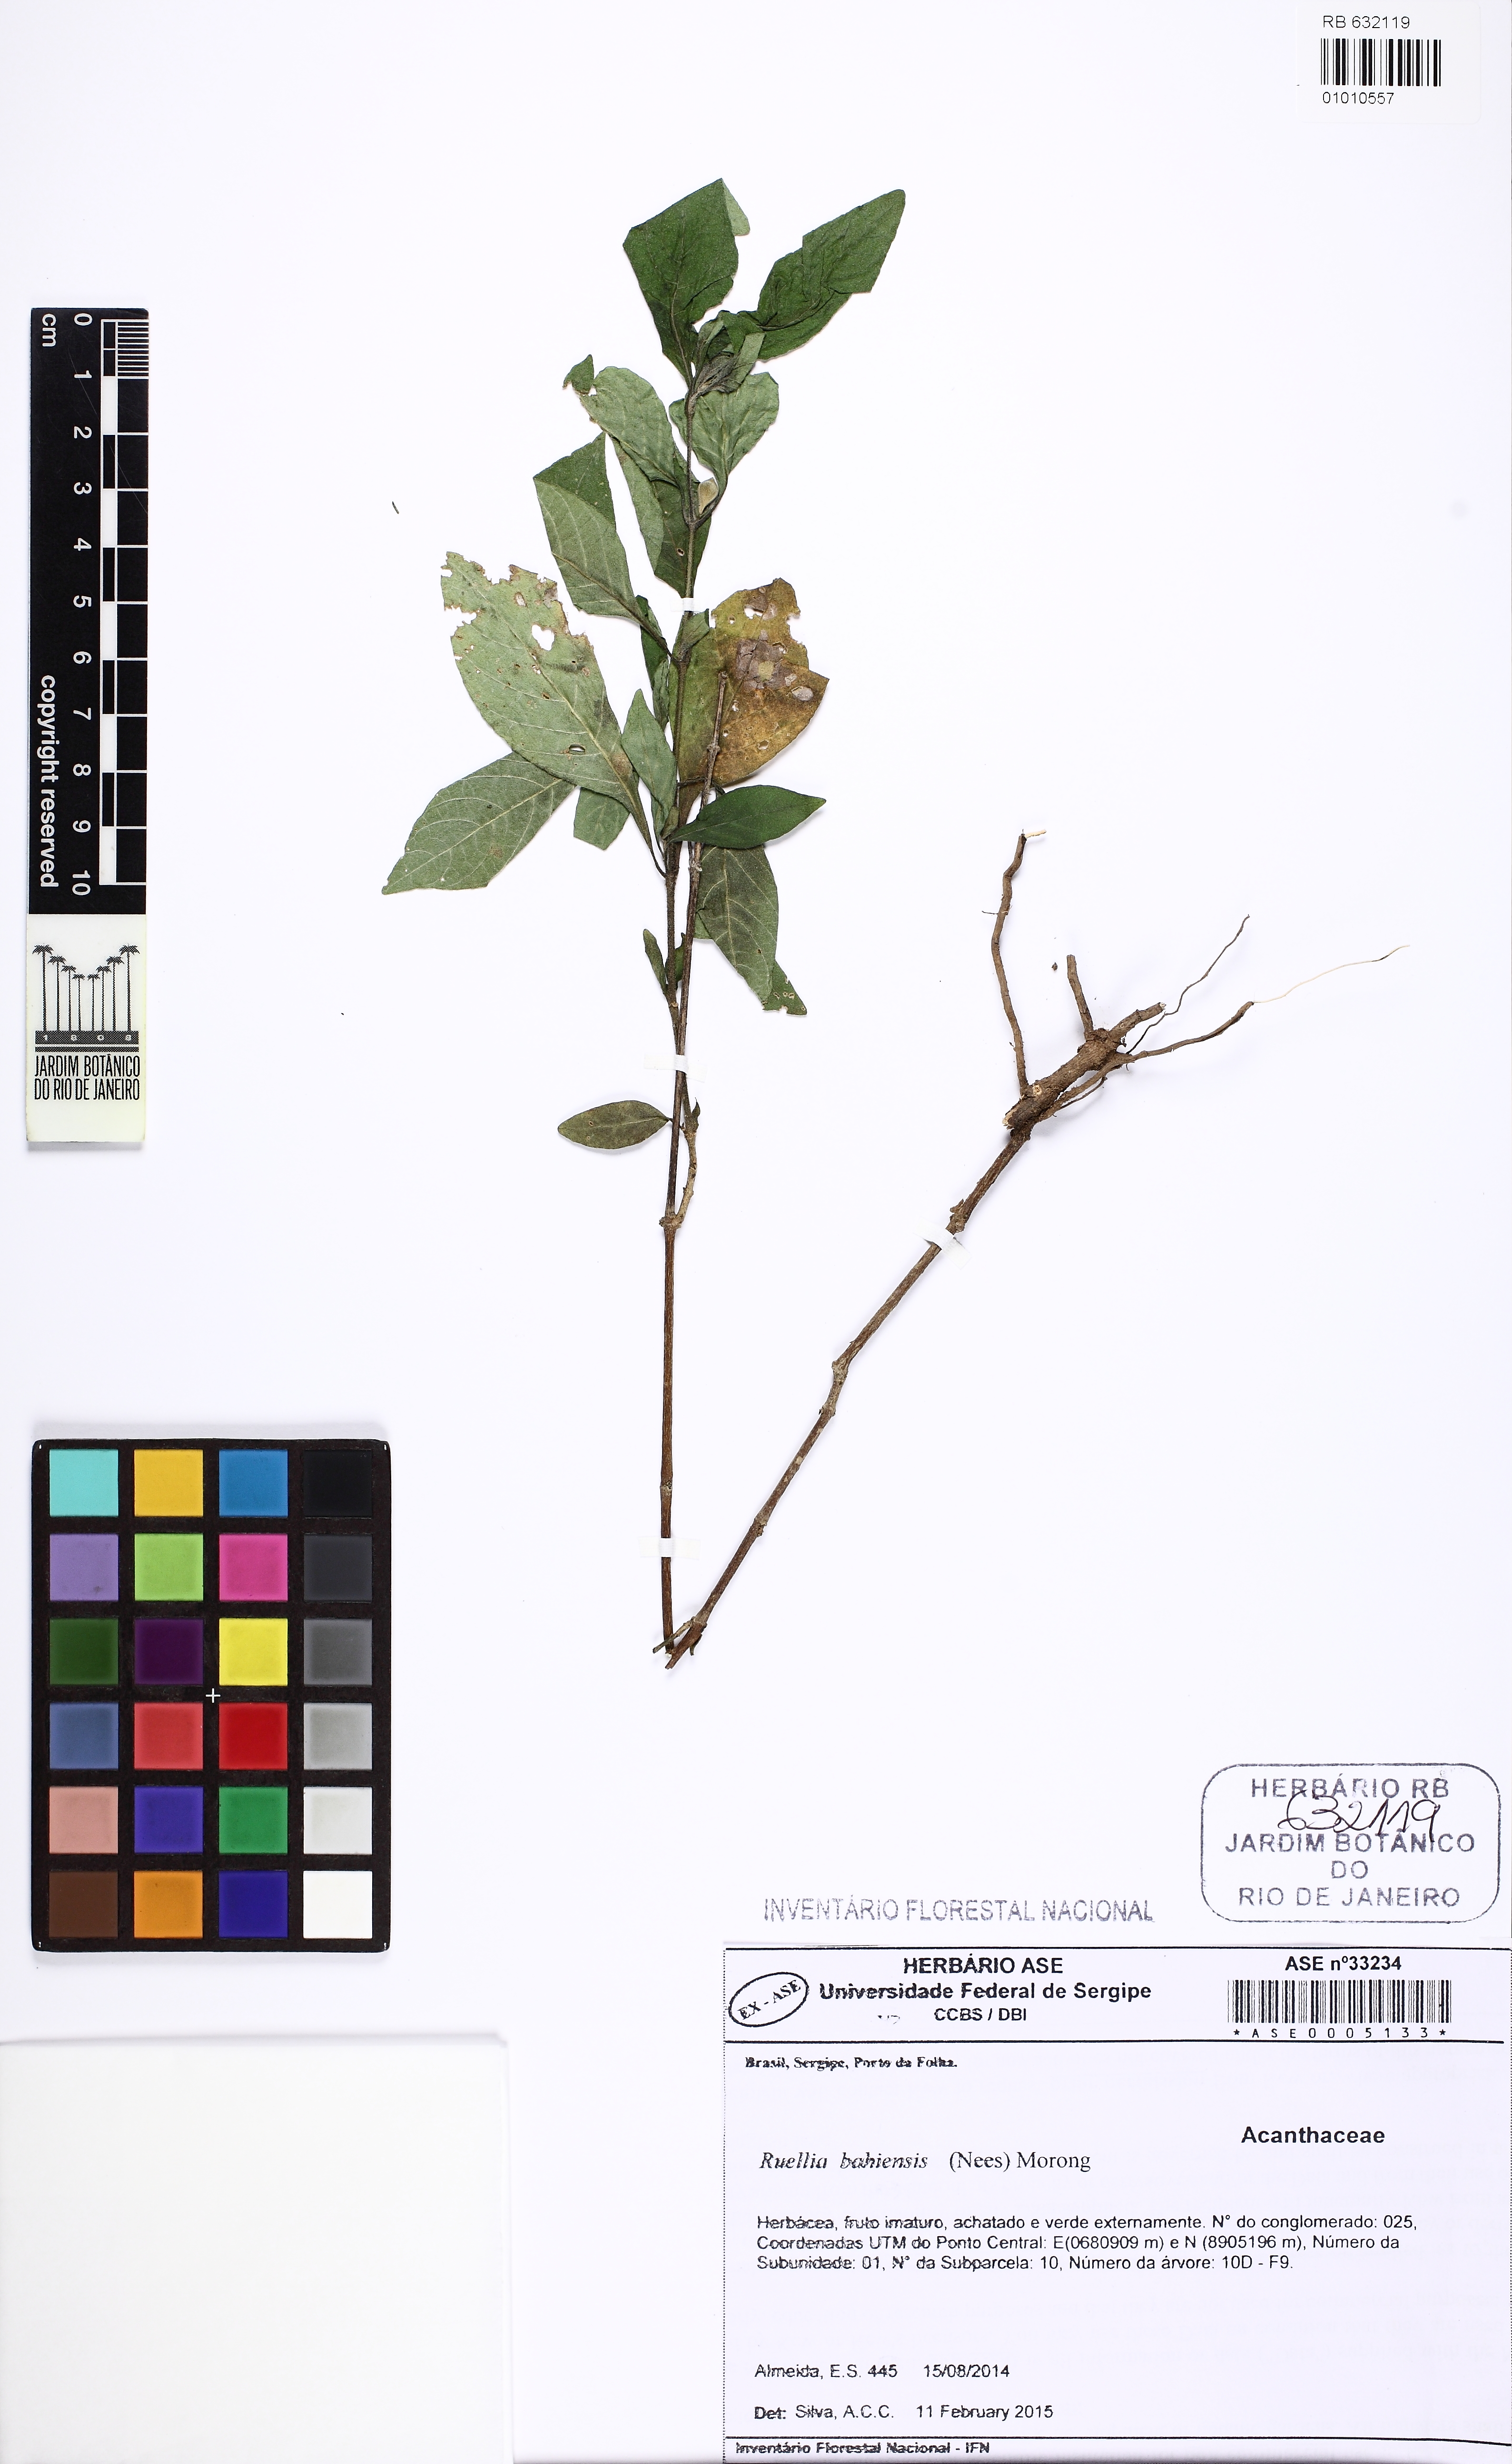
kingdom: Plantae
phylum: Tracheophyta
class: Magnoliopsida
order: Lamiales
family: Acanthaceae
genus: Ruellia
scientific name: Ruellia bahiensis
